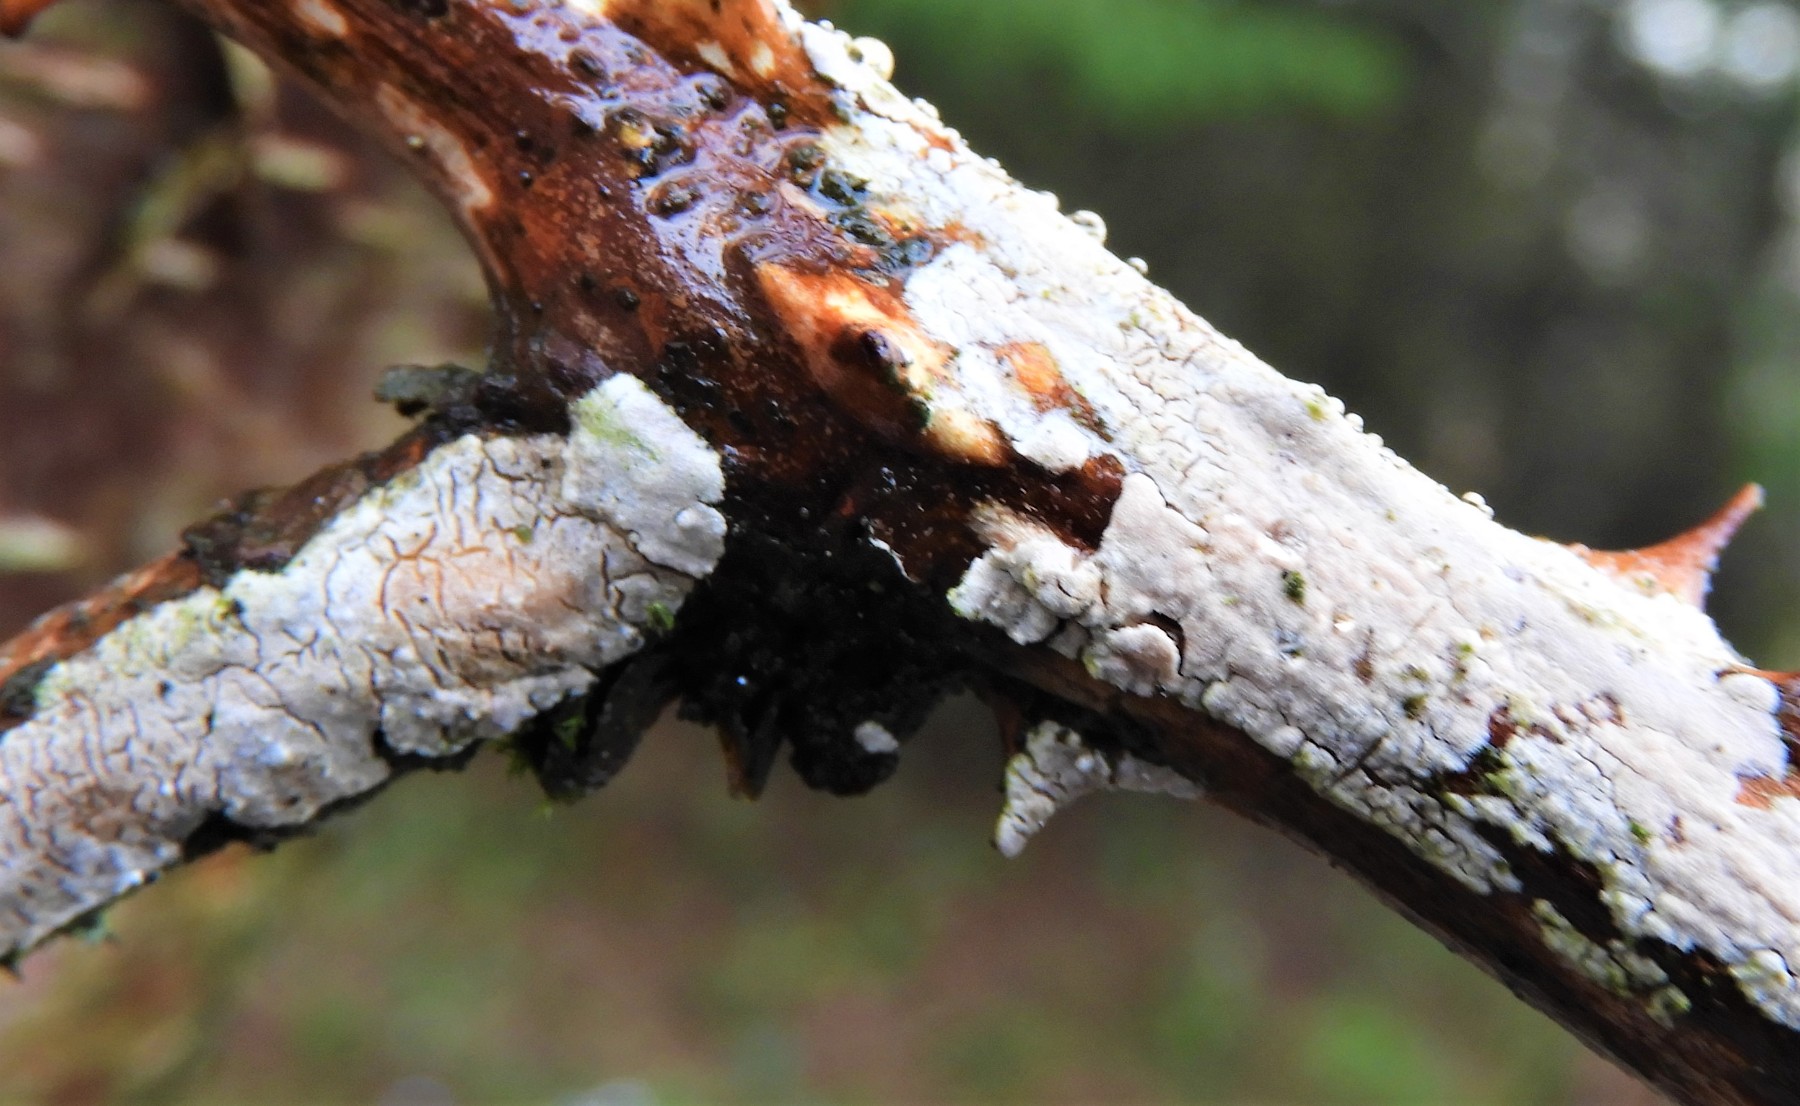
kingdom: Fungi
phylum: Basidiomycota
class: Agaricomycetes
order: Corticiales
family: Corticiaceae
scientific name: Corticiaceae
